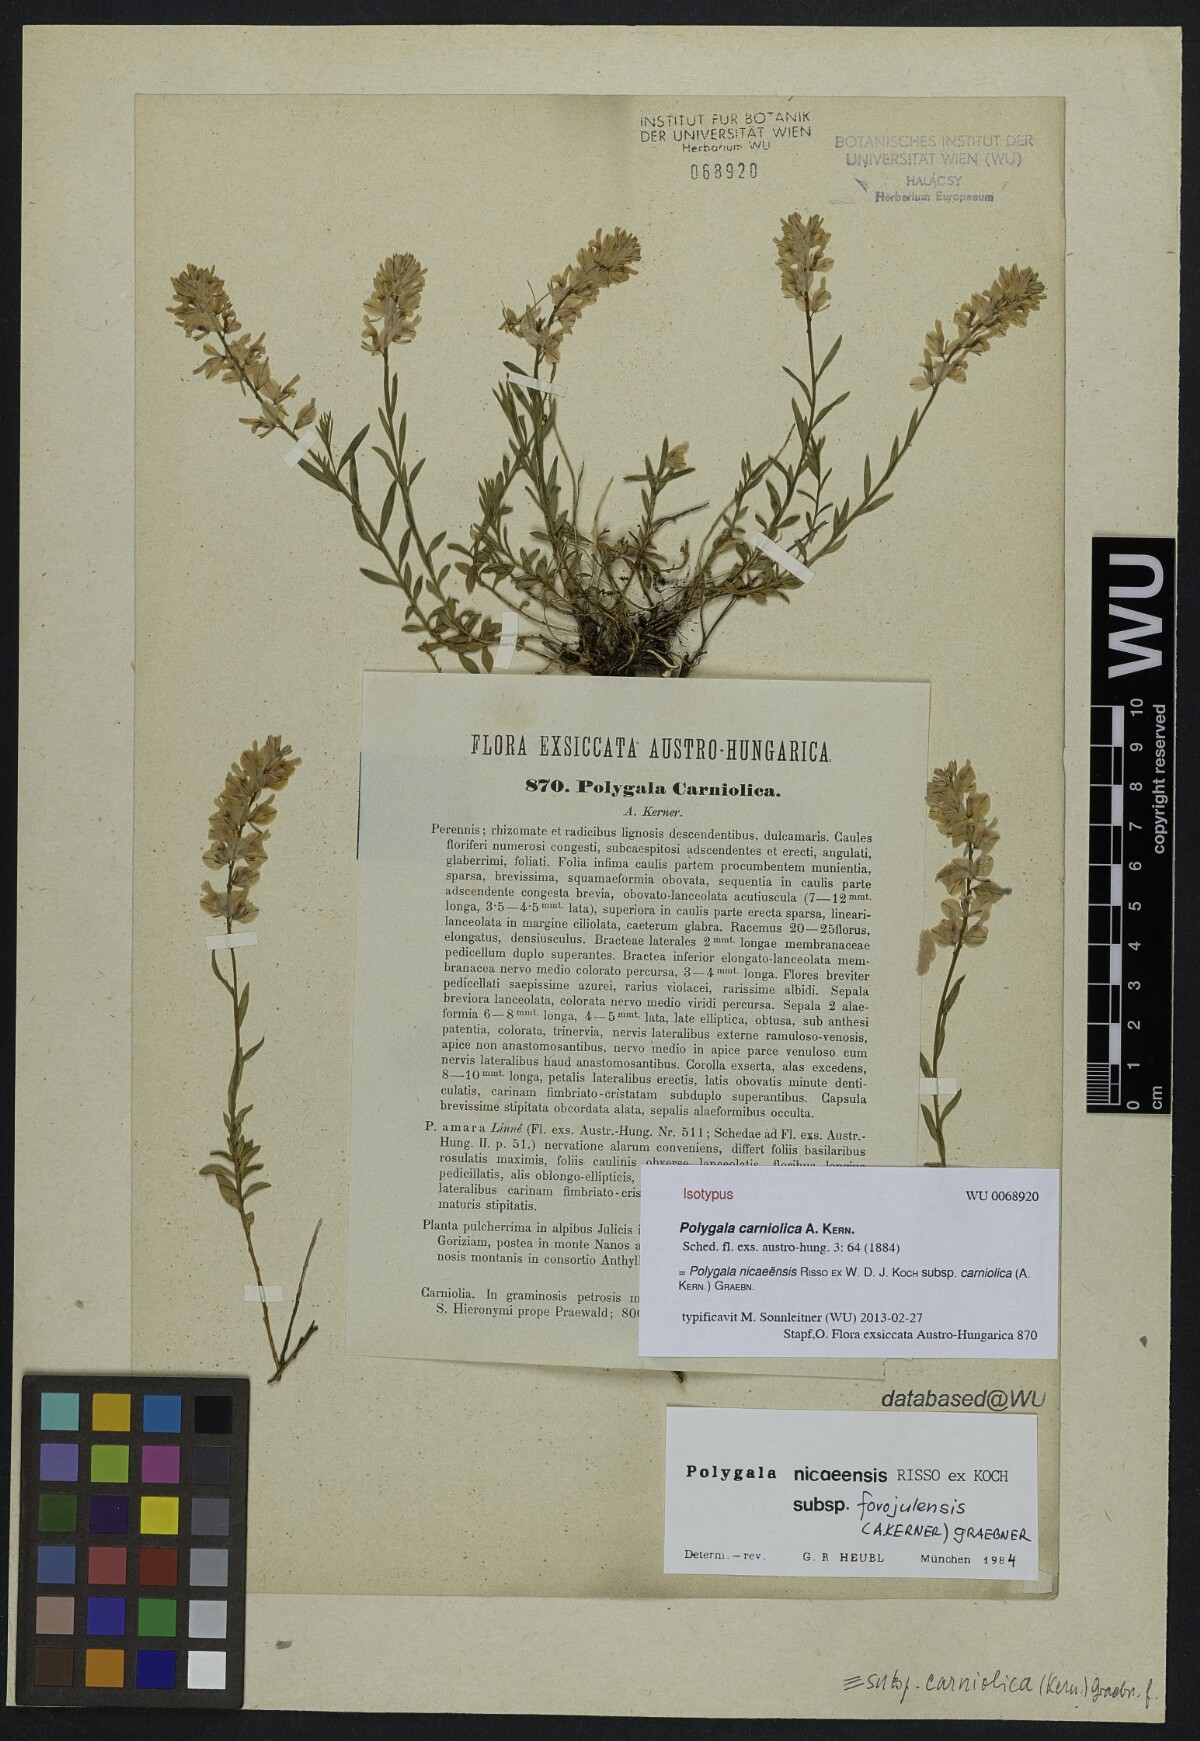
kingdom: Plantae
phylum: Tracheophyta
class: Magnoliopsida
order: Fabales
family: Polygalaceae
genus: Polygala
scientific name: Polygala forojulensis
